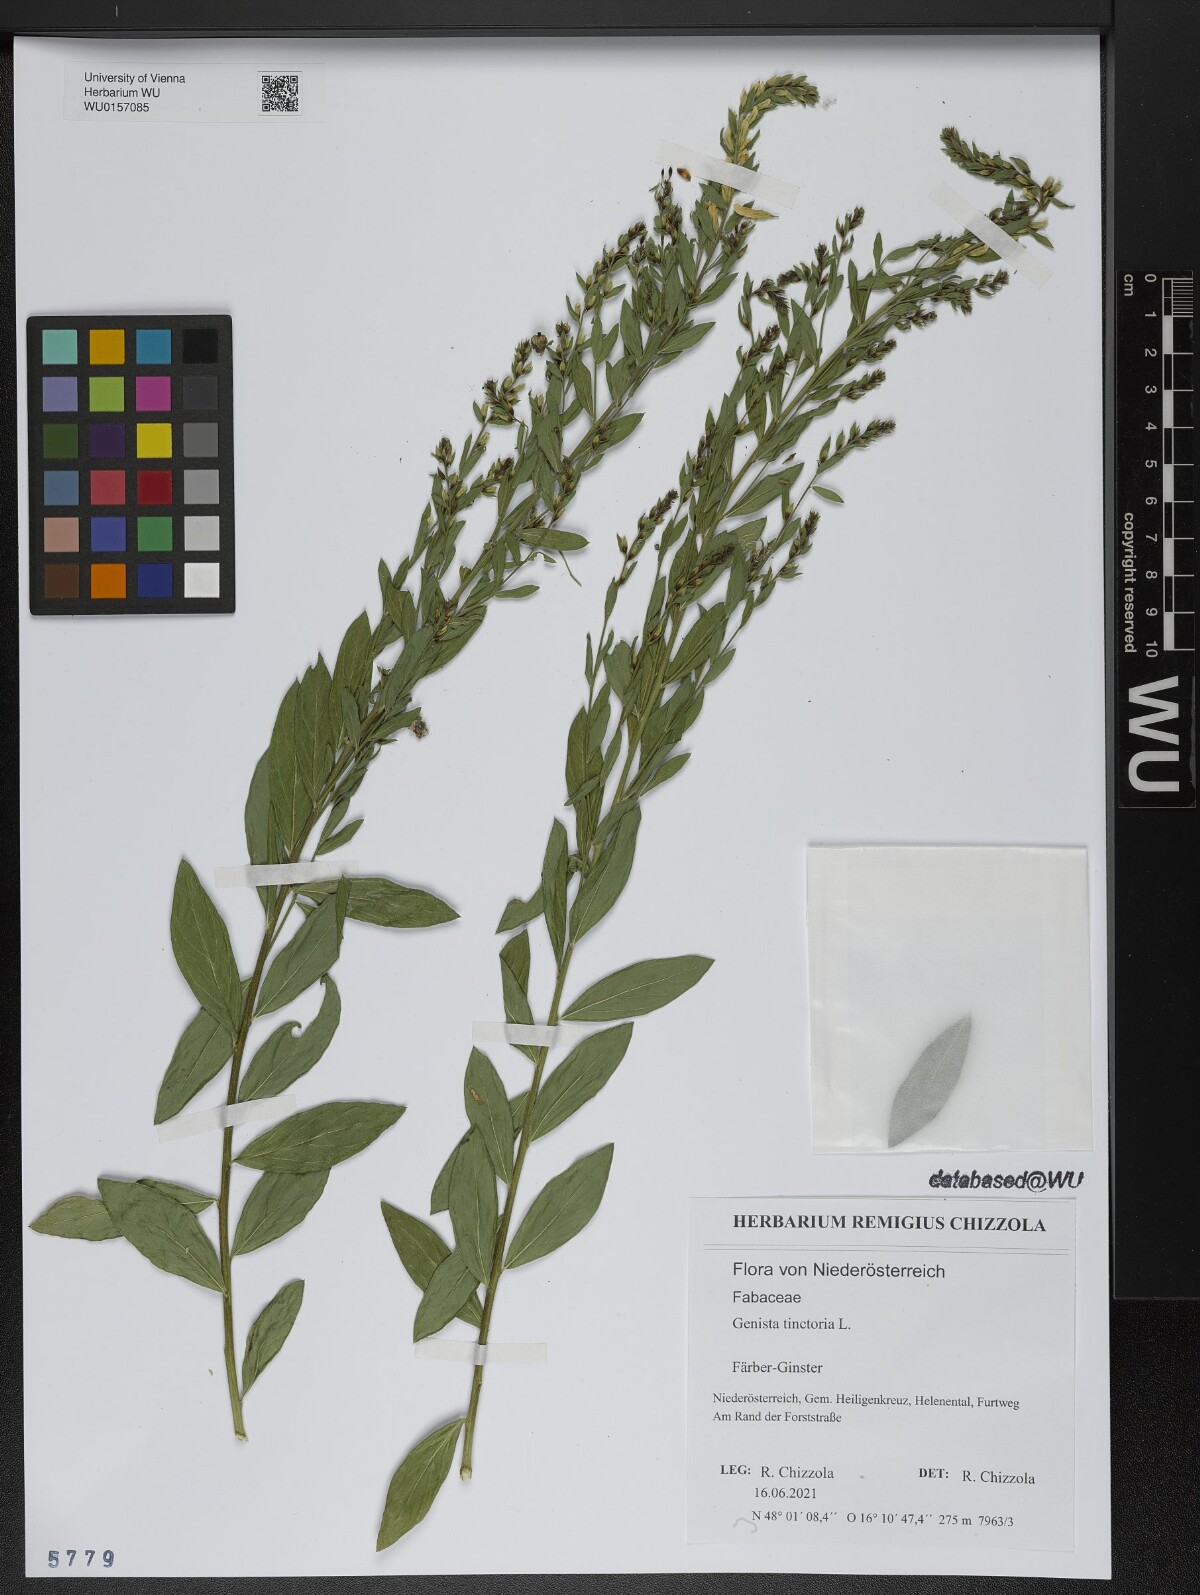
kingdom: Plantae
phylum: Tracheophyta
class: Magnoliopsida
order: Fabales
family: Fabaceae
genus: Genista
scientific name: Genista tinctoria
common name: Dyer's greenweed
